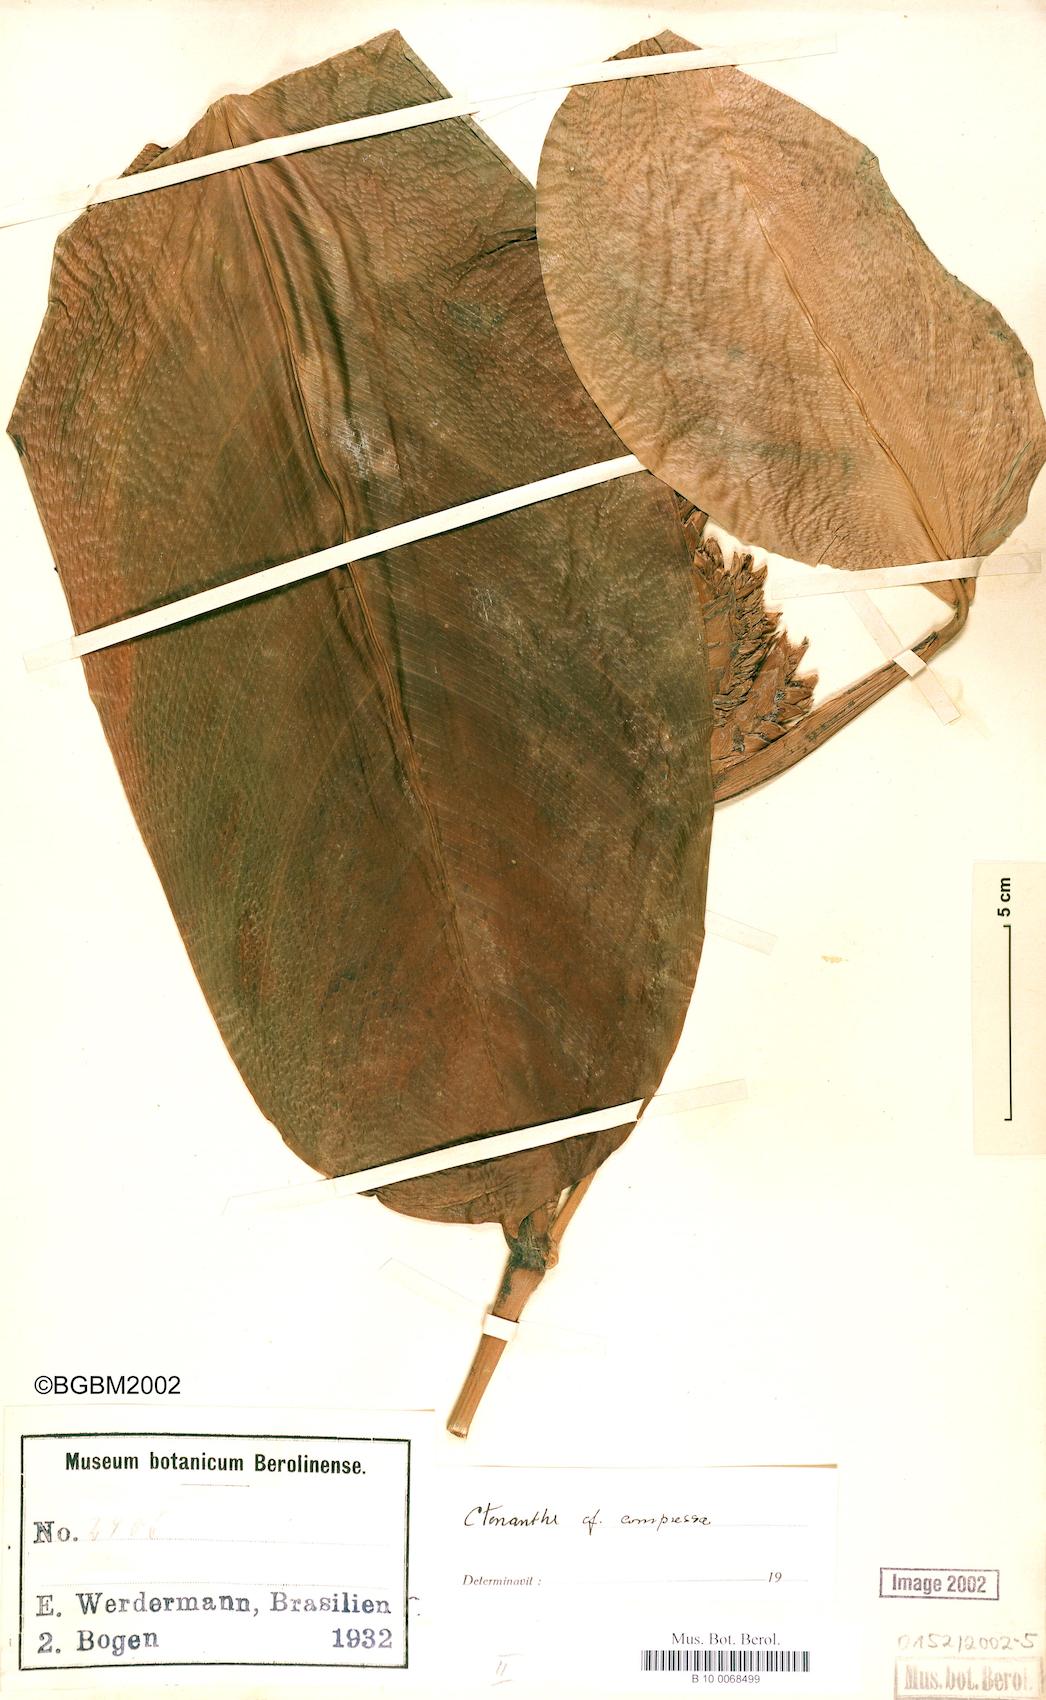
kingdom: Plantae
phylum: Tracheophyta
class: Liliopsida
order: Zingiberales
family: Marantaceae
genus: Ctenanthe
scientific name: Ctenanthe compressa
